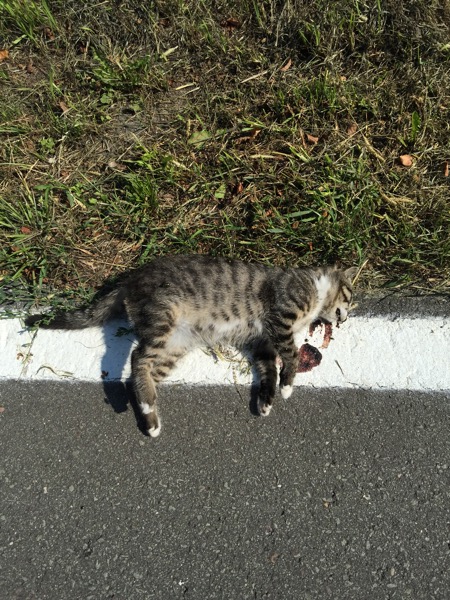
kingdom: Animalia
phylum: Chordata
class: Mammalia
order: Carnivora
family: Felidae
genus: Felis
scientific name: Felis catus
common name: Domestic cat
